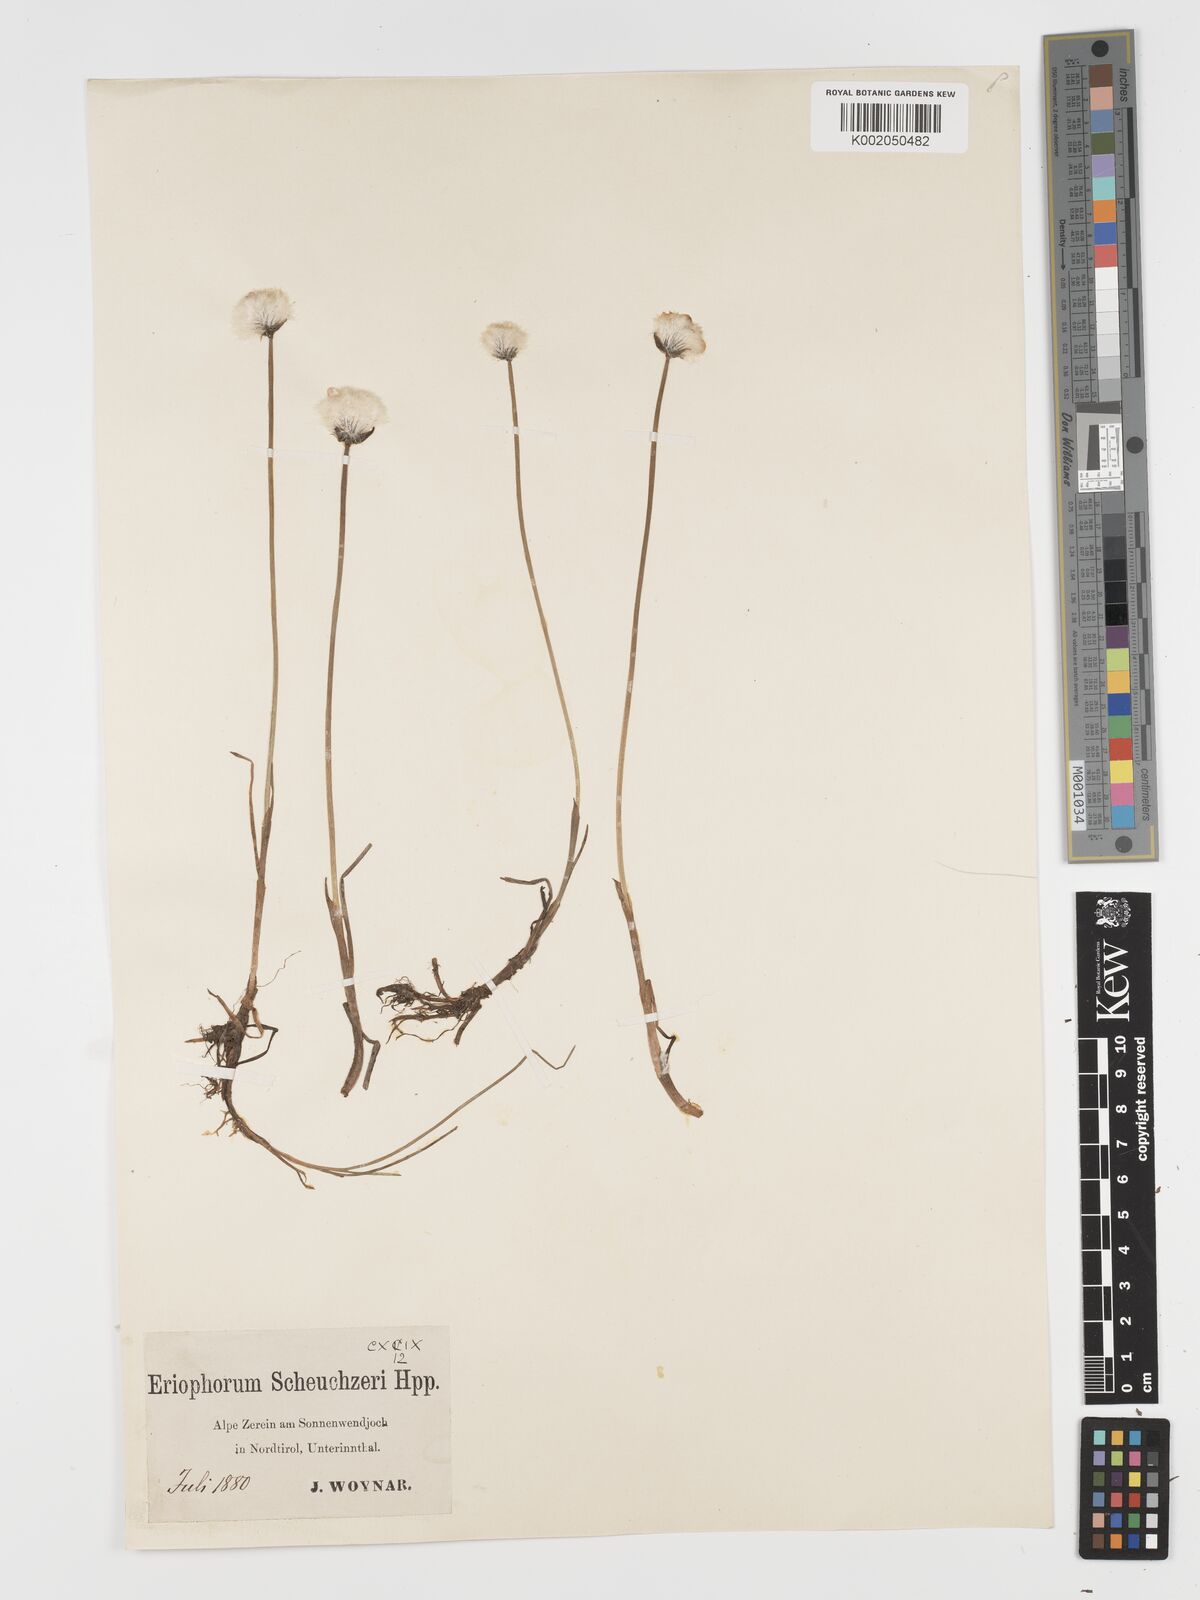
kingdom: Plantae
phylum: Tracheophyta
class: Liliopsida
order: Poales
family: Cyperaceae
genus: Eriophorum
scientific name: Eriophorum scheuchzeri
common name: Scheuchzer's cottongrass
